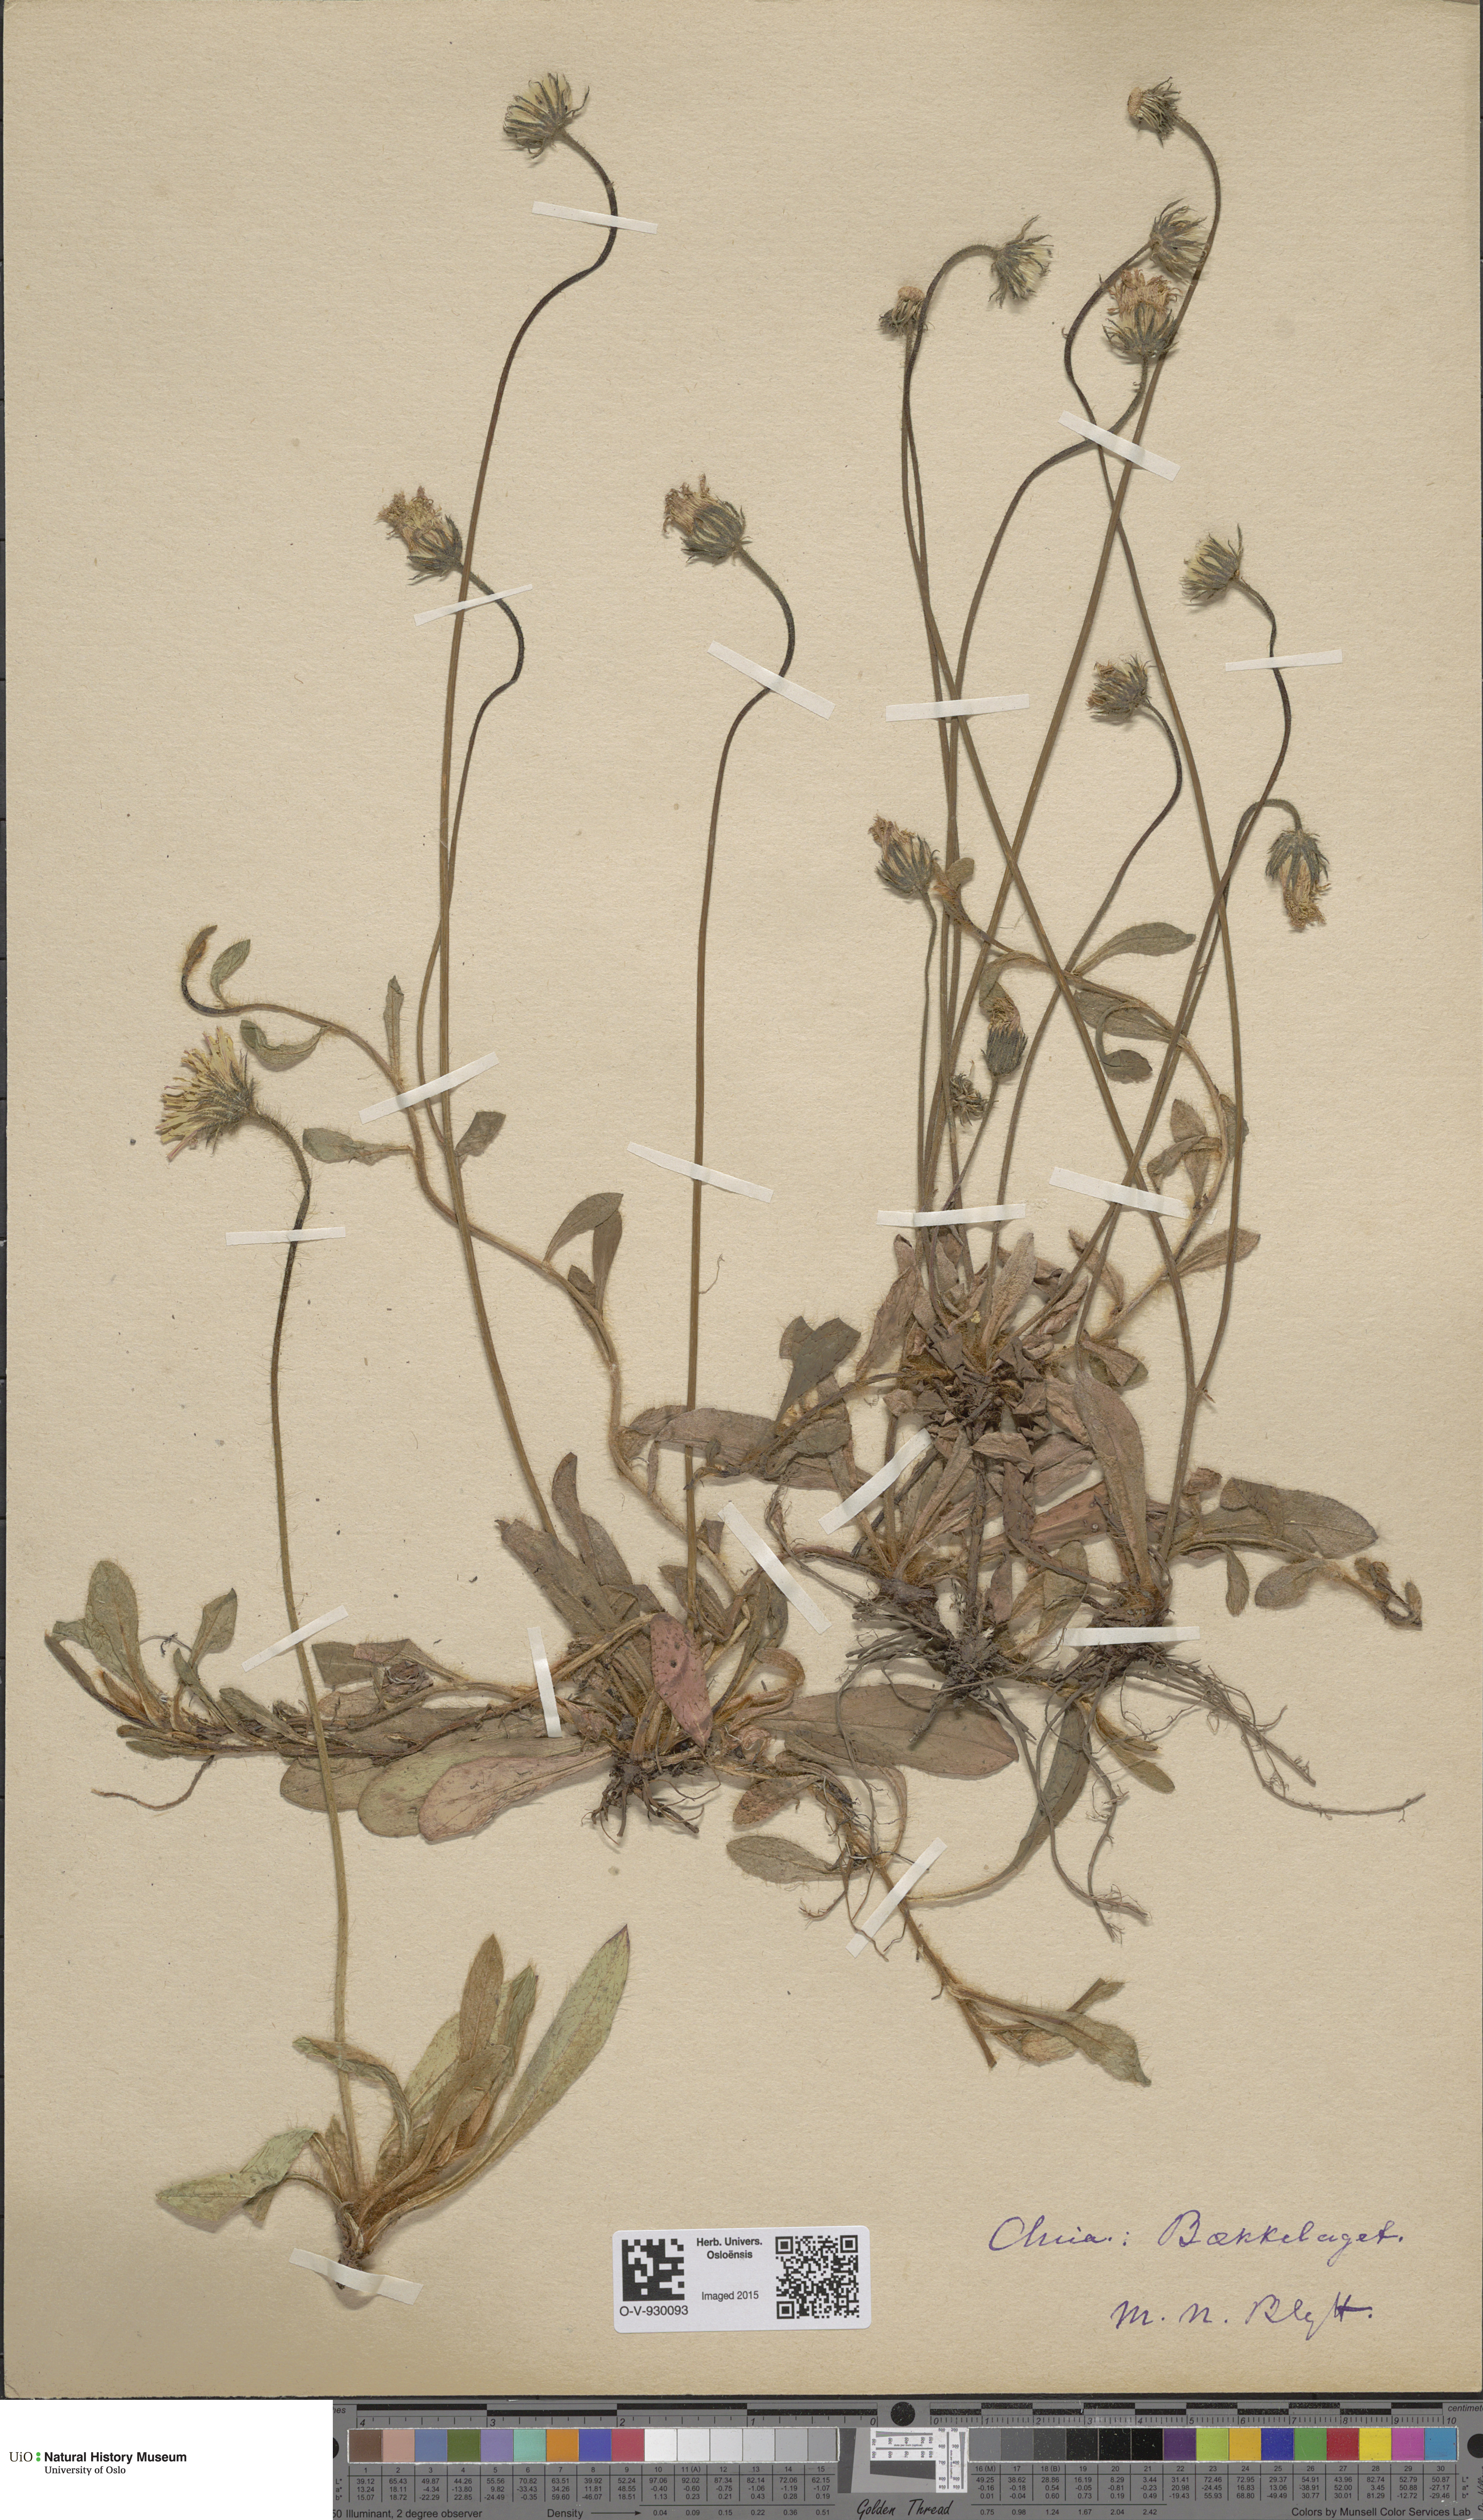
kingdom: Plantae
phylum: Tracheophyta
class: Magnoliopsida
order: Asterales
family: Asteraceae
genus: Pilosella
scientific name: Pilosella officinarum
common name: Mouse-ear hawkweed
